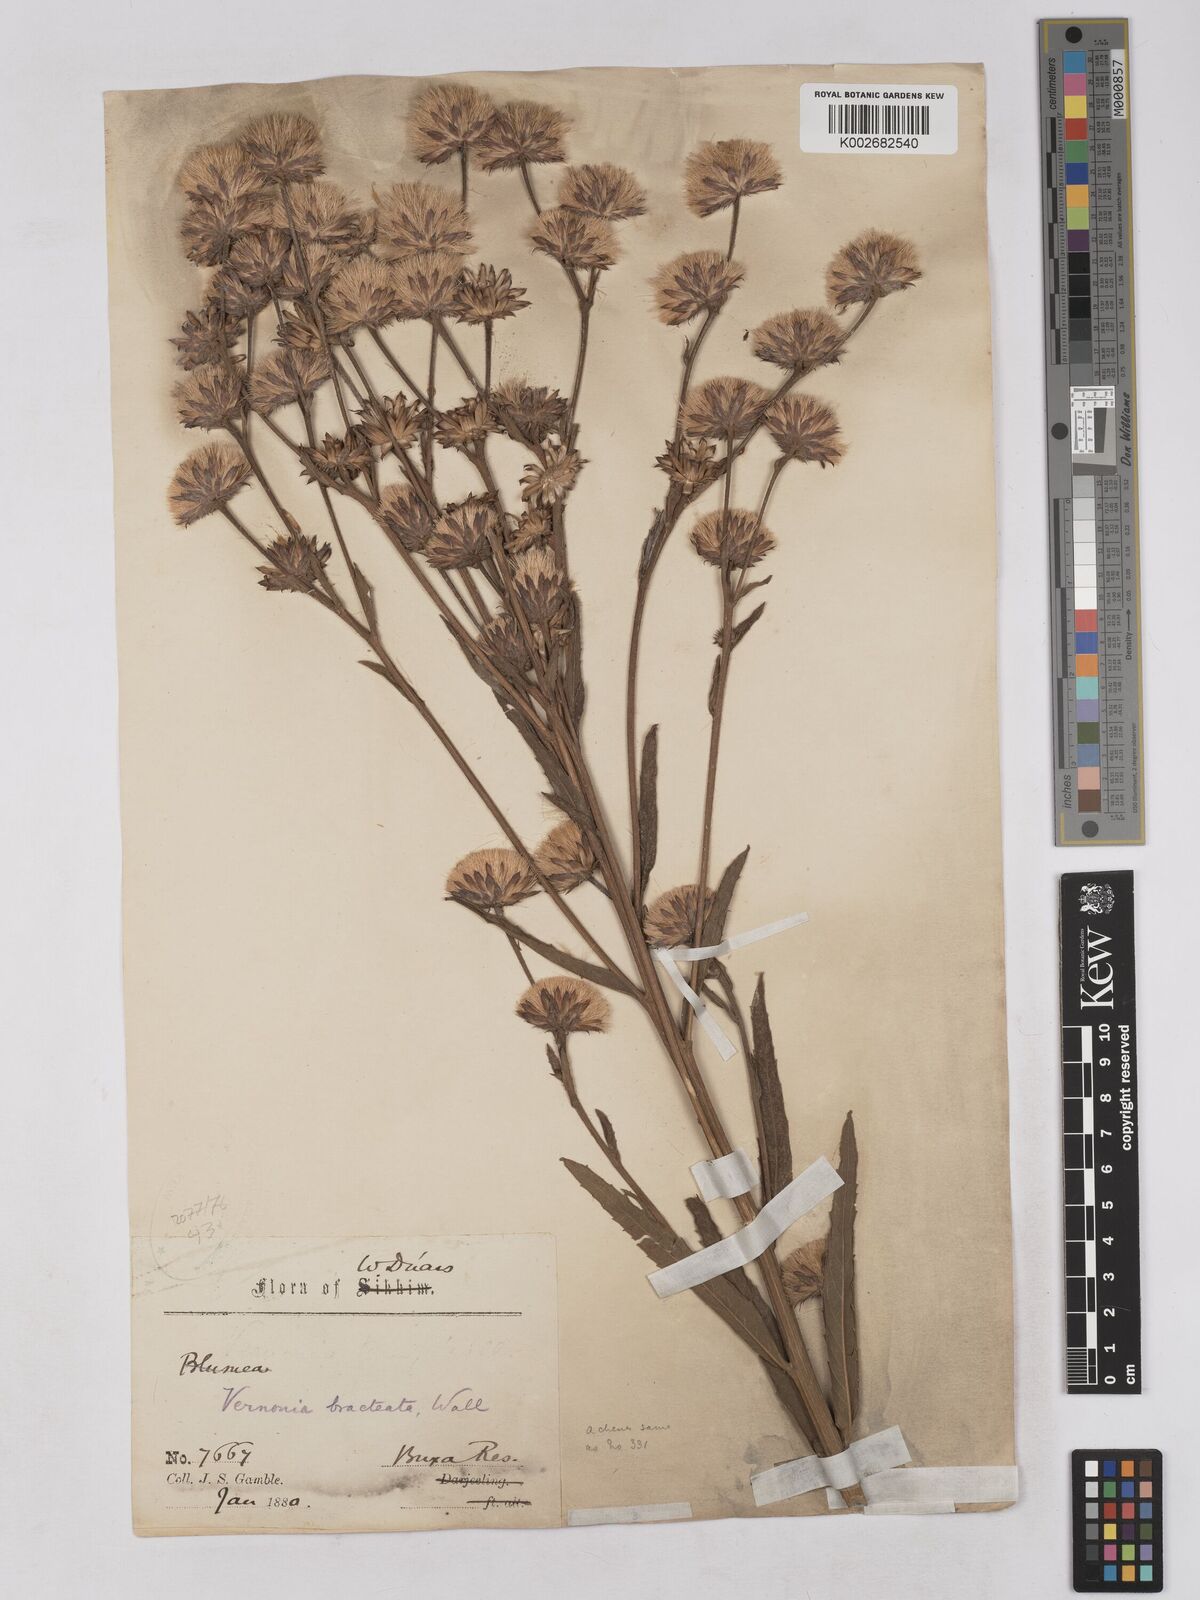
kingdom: Plantae
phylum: Tracheophyta
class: Magnoliopsida
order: Asterales
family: Asteraceae
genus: Acilepis
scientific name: Acilepis silhetensis
